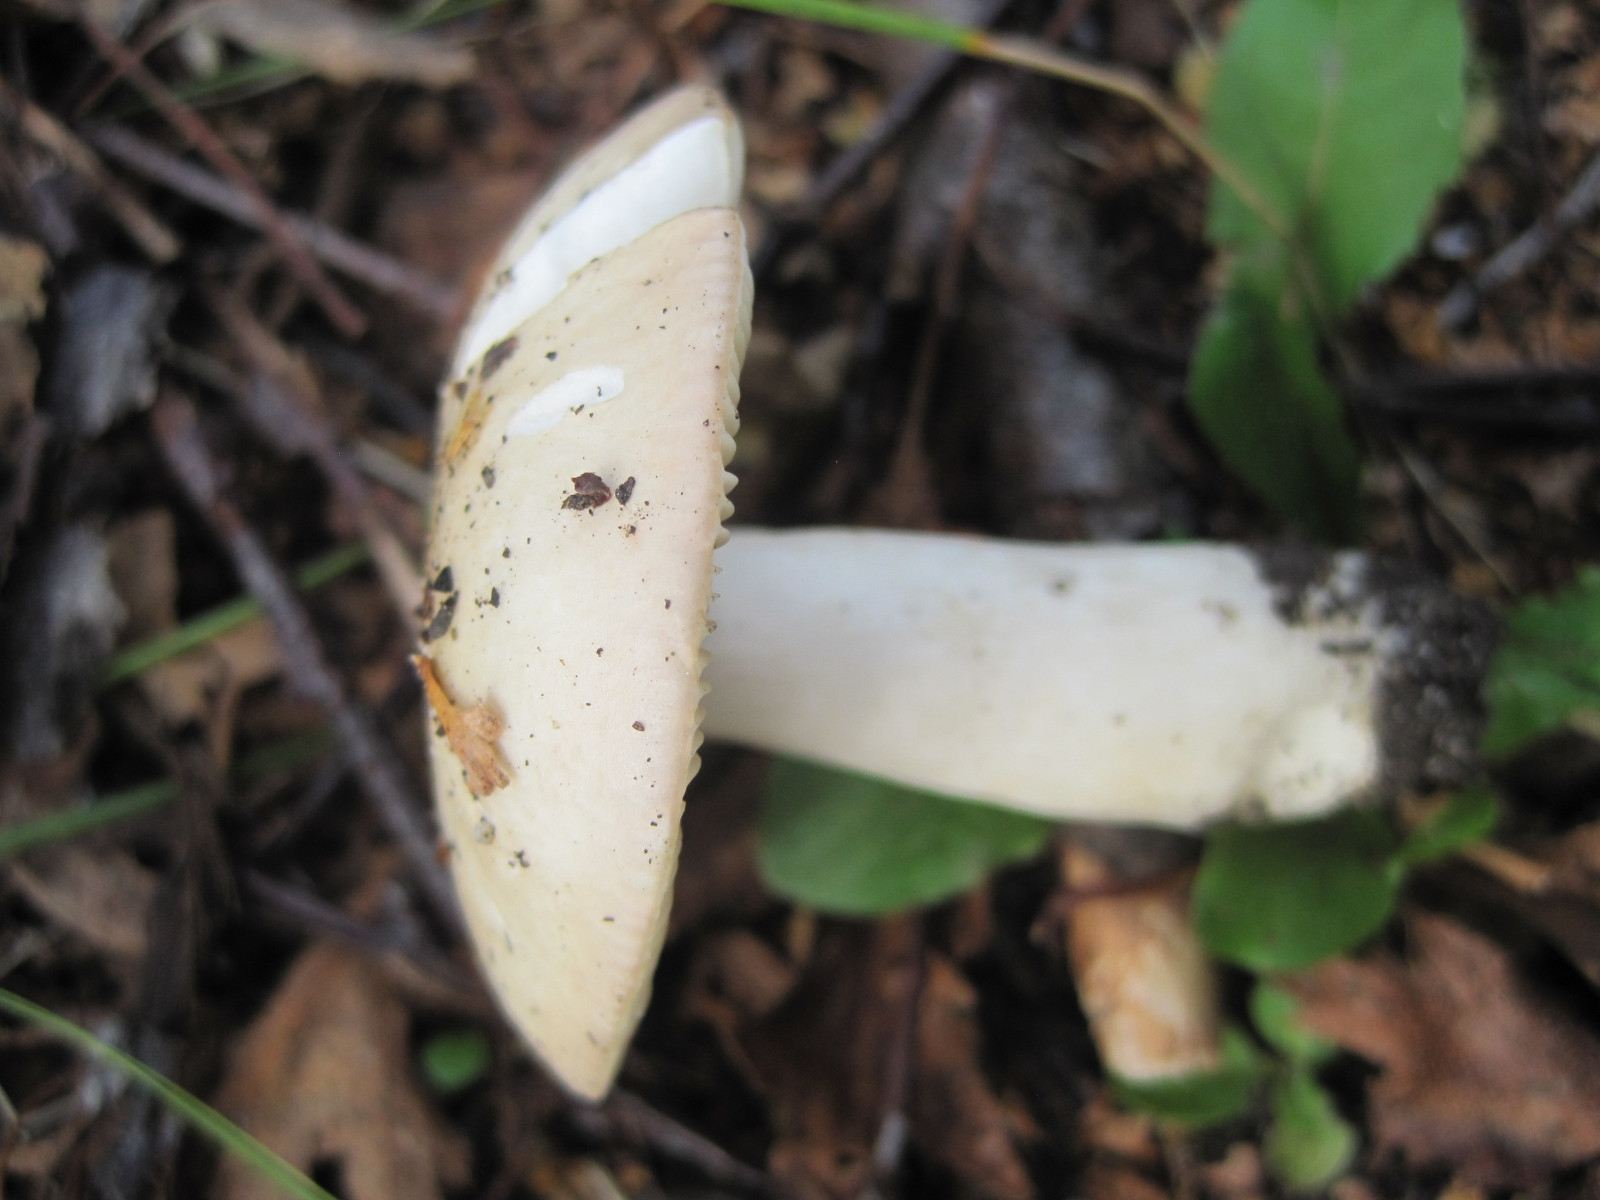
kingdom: Fungi
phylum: Basidiomycota
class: Agaricomycetes
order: Russulales
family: Russulaceae
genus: Russula
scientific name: Russula depallens
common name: falmende skørhat
